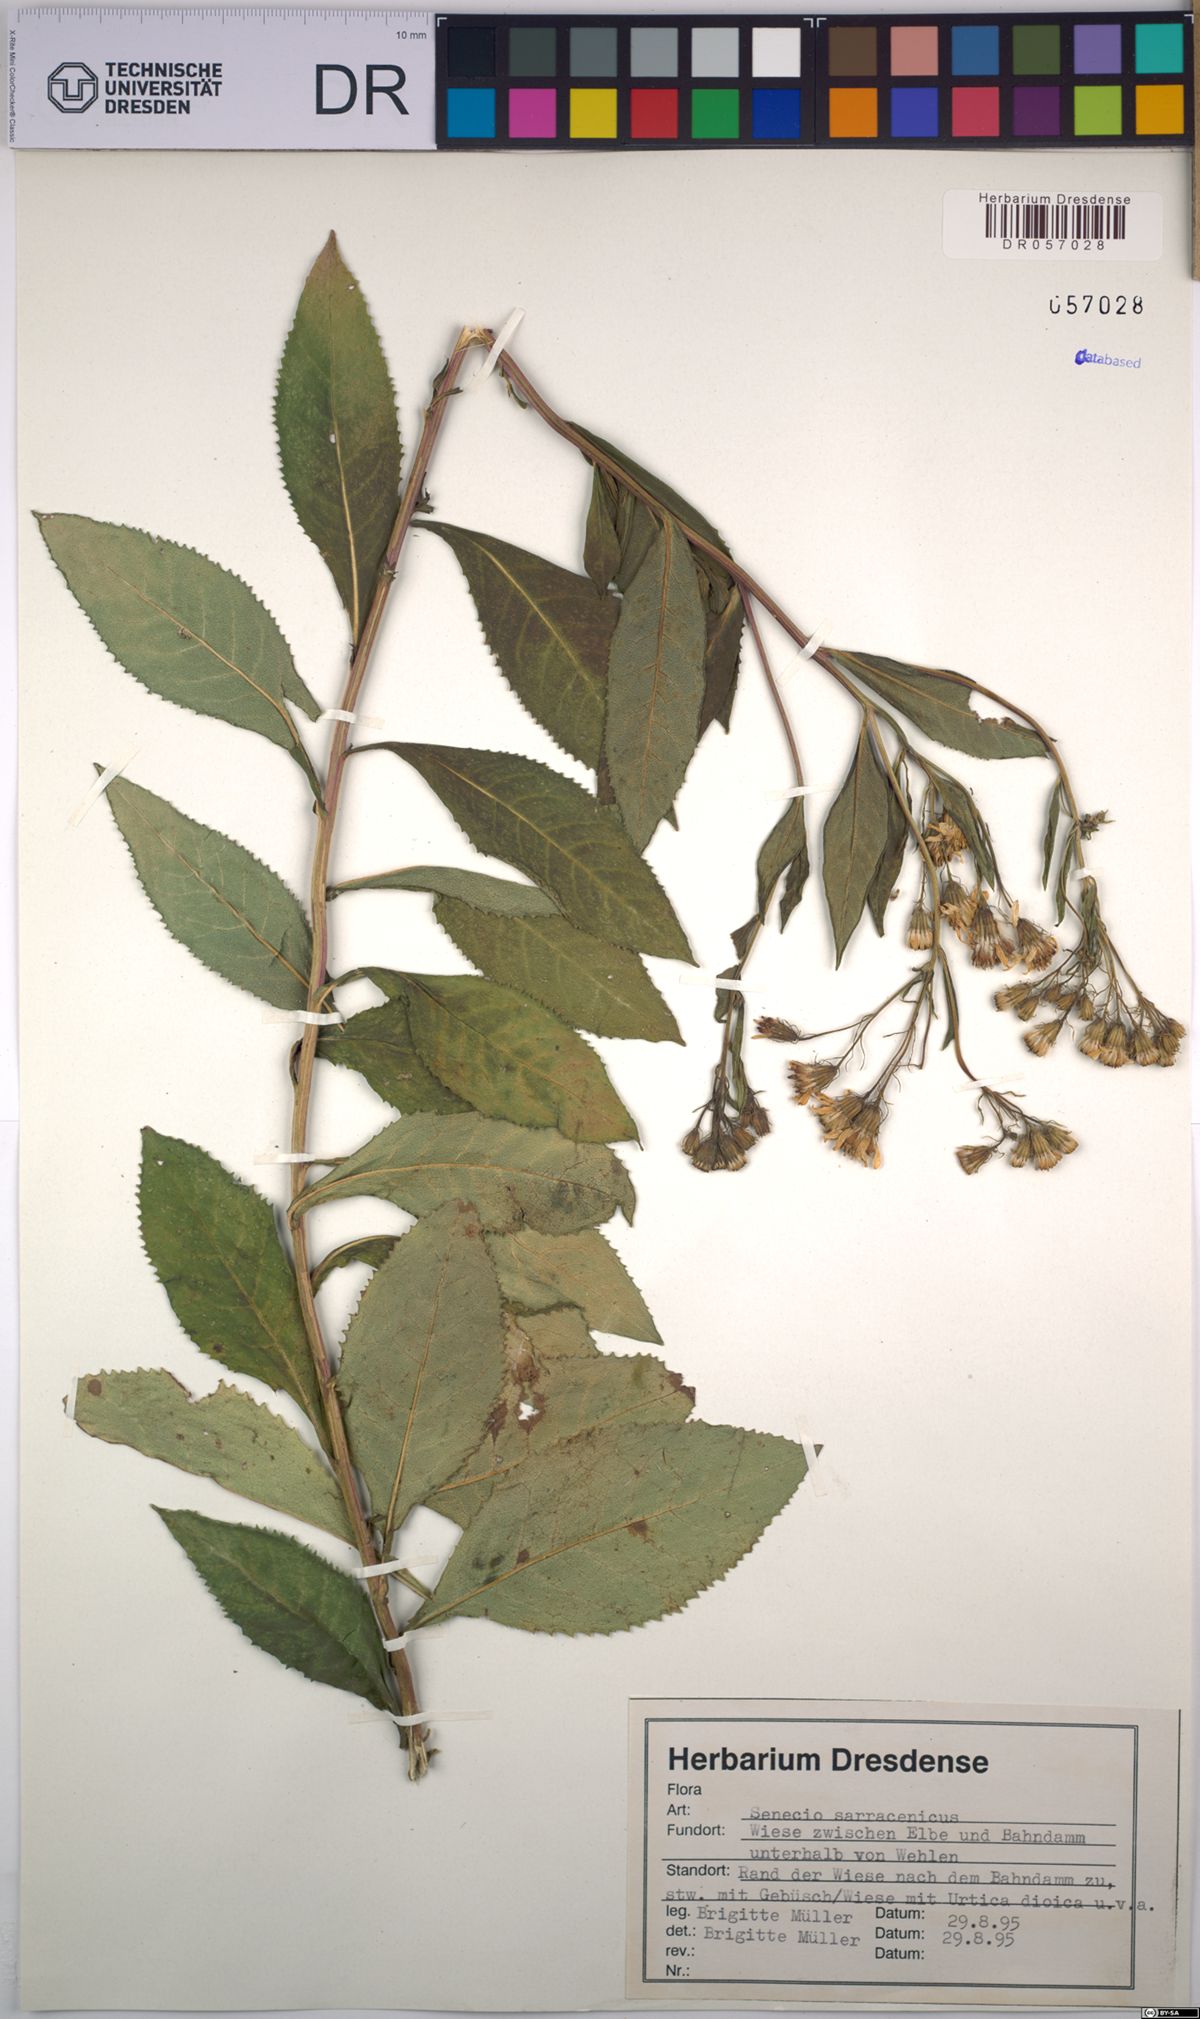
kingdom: Plantae
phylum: Tracheophyta
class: Magnoliopsida
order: Asterales
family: Asteraceae
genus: Senecio
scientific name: Senecio sarracenicus
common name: Broad-leaved ragwort
